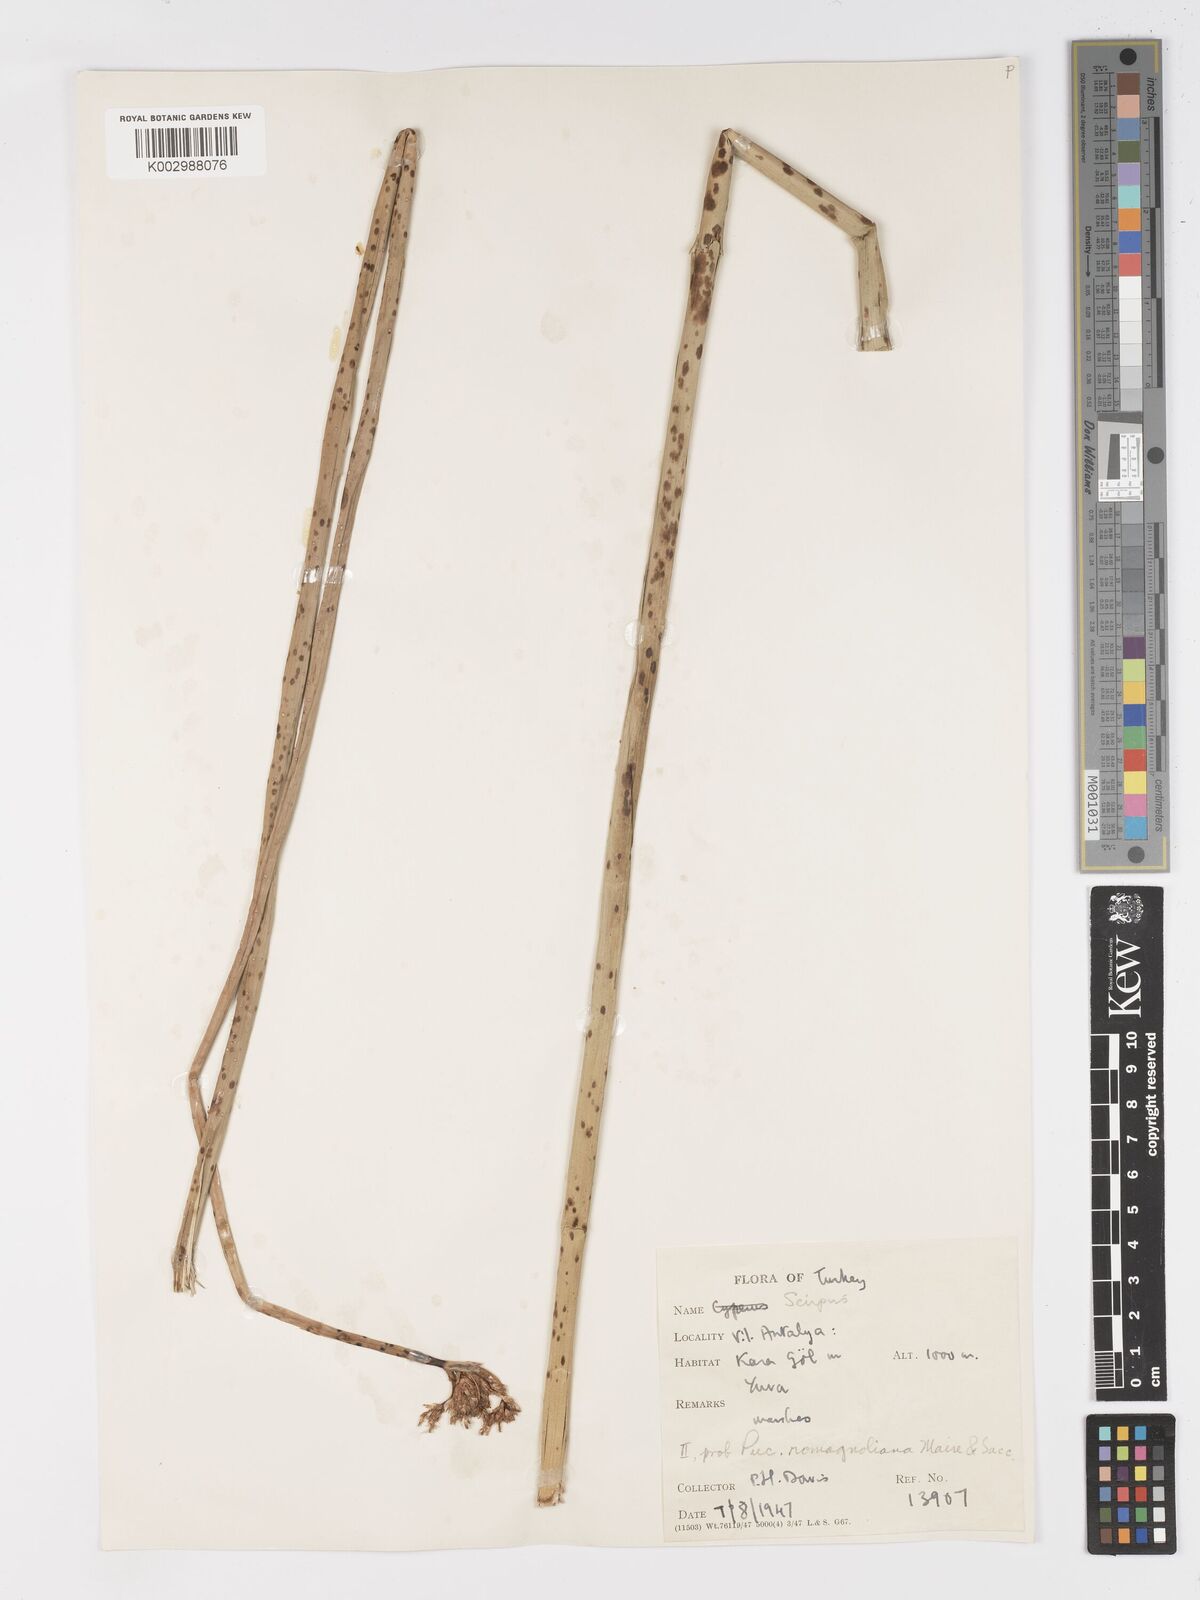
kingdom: Plantae
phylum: Tracheophyta
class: Liliopsida
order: Poales
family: Cyperaceae
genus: Schoenoplectus
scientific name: Schoenoplectus
